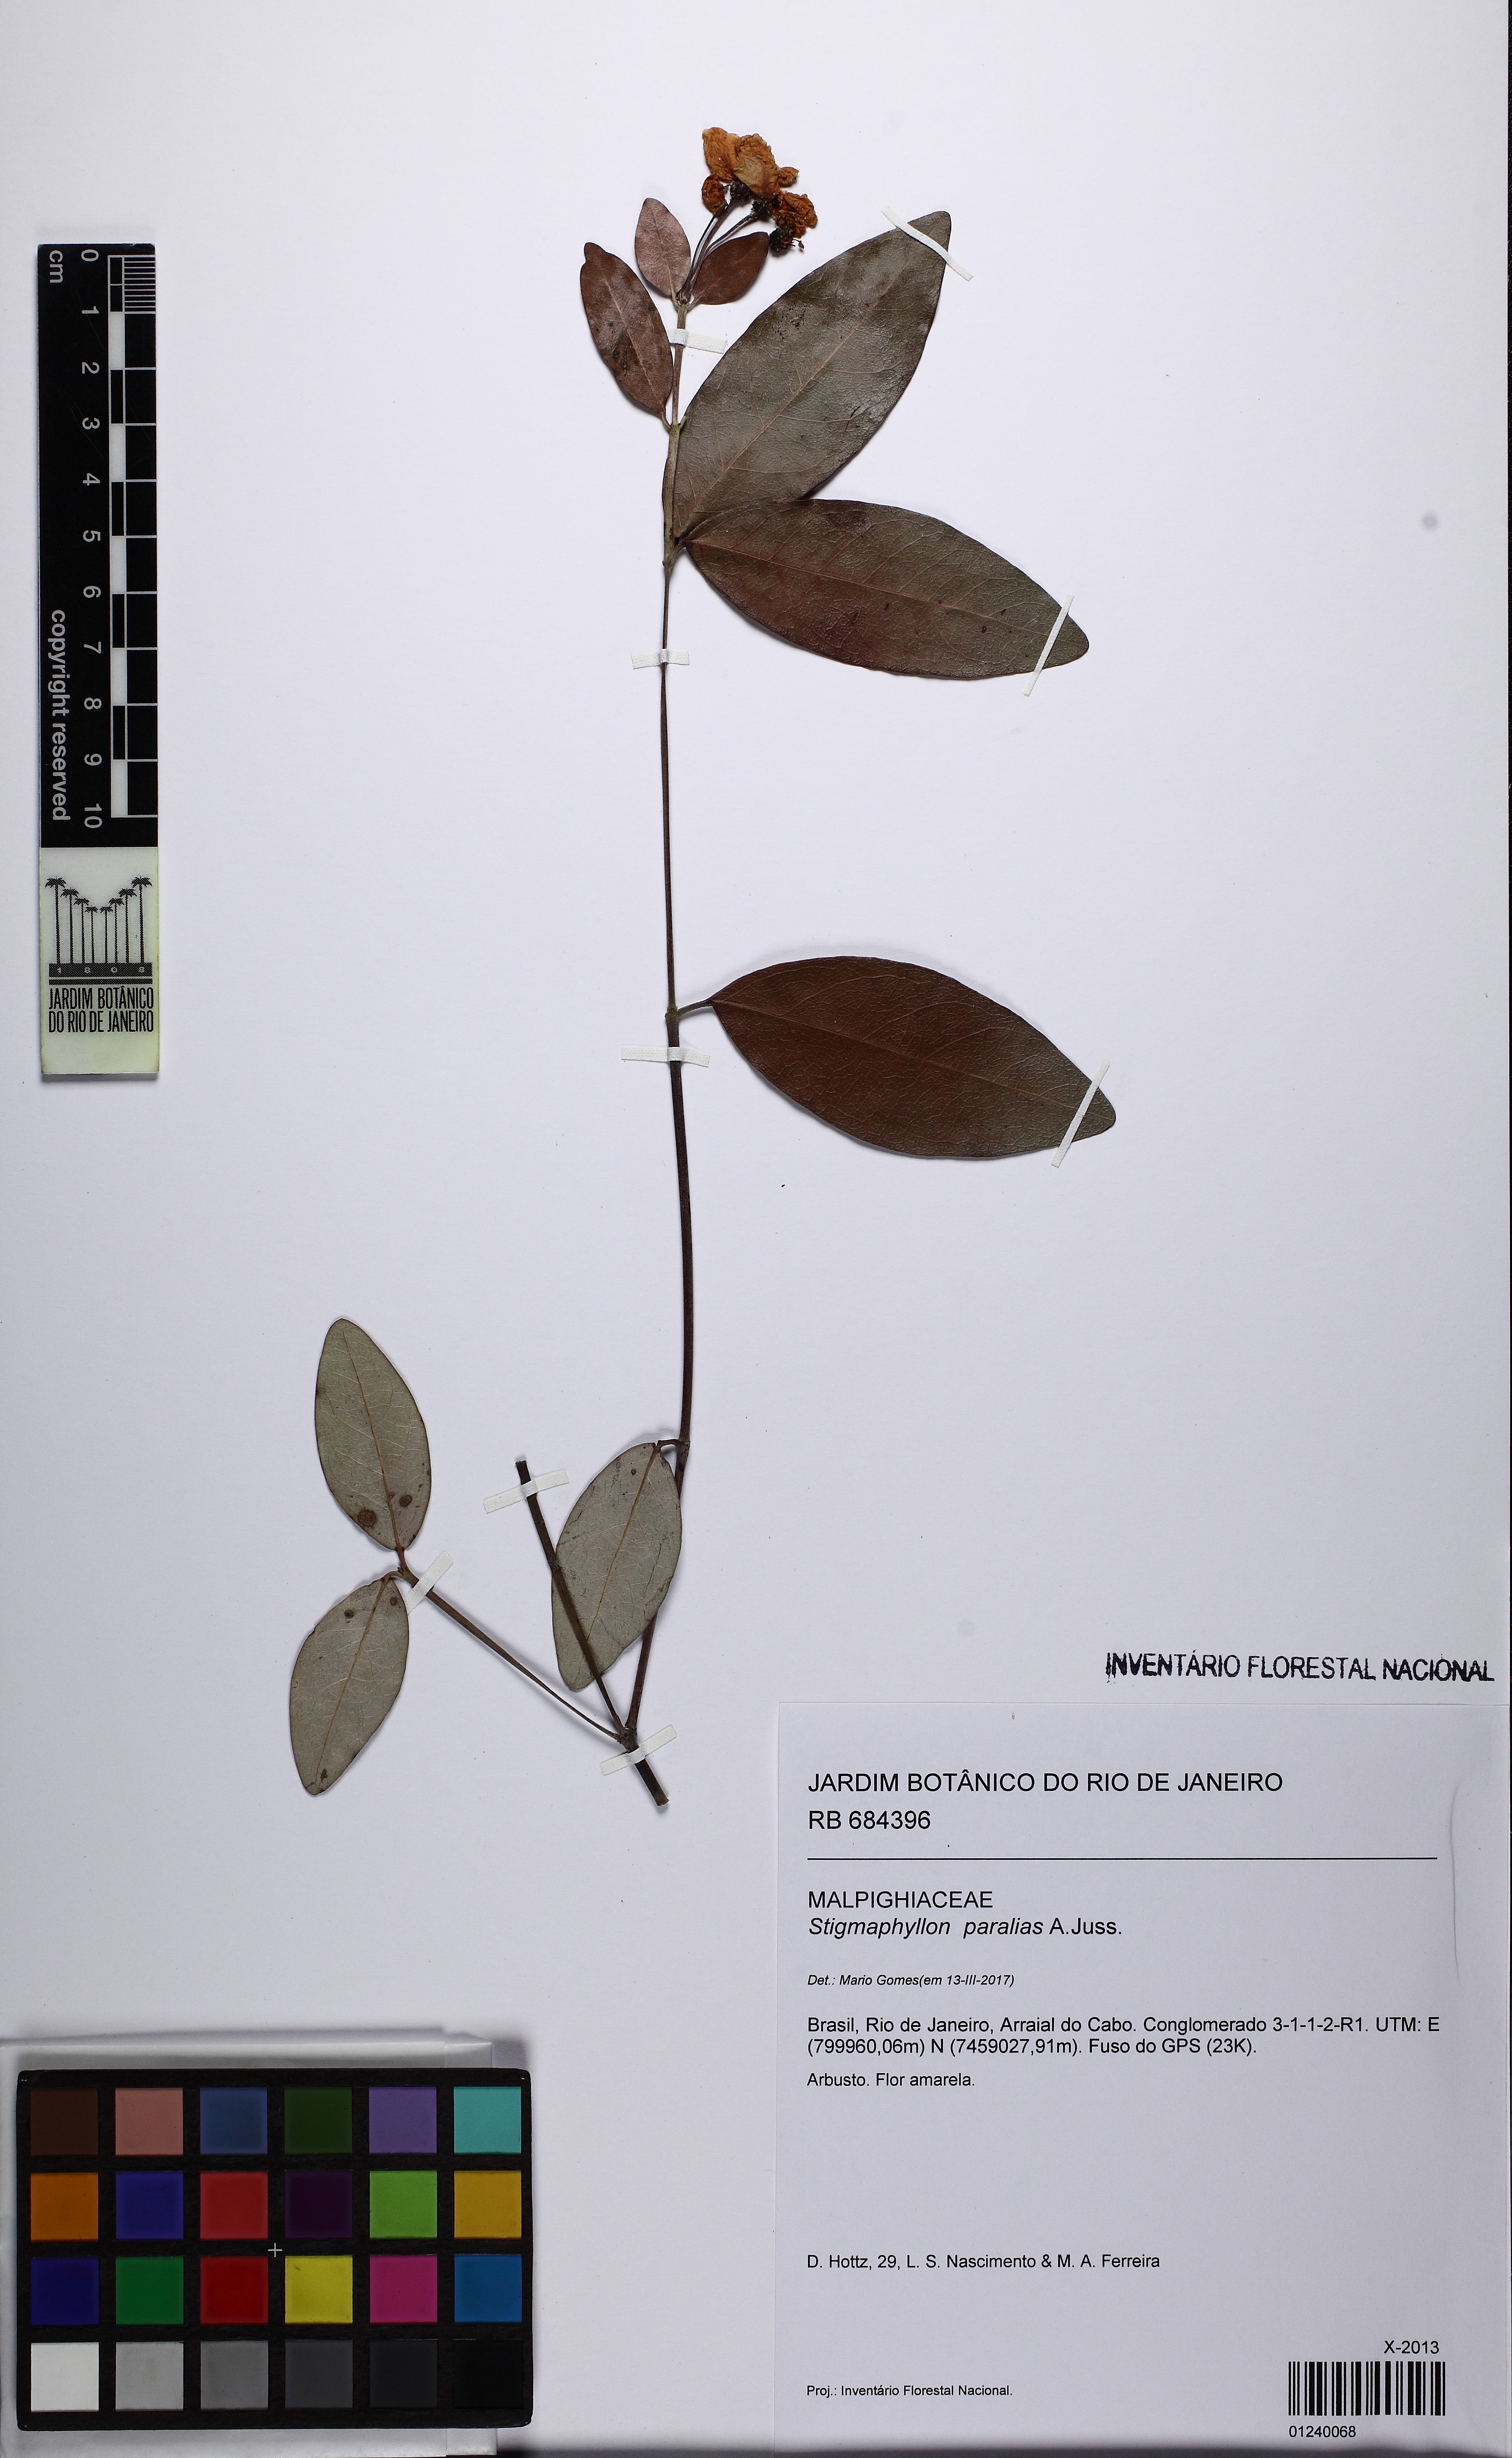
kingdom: Plantae
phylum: Tracheophyta
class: Magnoliopsida
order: Malpighiales
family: Malpighiaceae
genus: Stigmaphyllon
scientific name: Stigmaphyllon paralias
